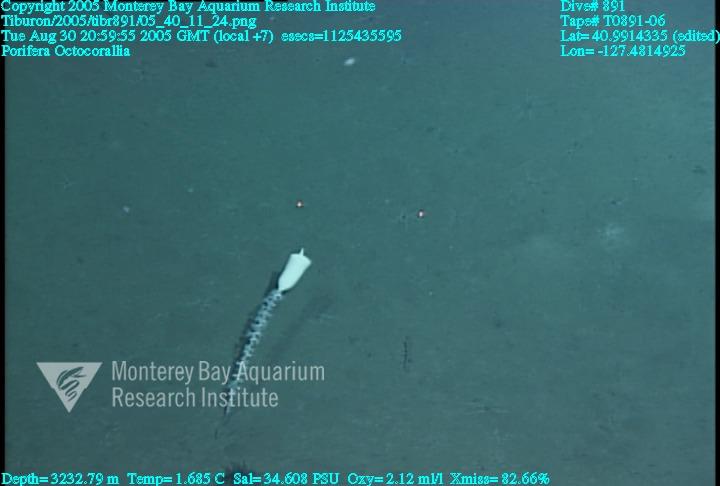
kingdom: Animalia
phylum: Porifera
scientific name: Porifera
